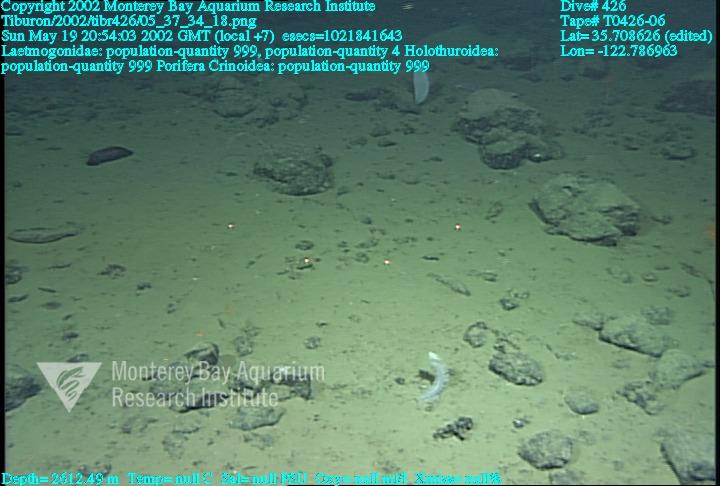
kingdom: Animalia
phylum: Porifera
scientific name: Porifera
